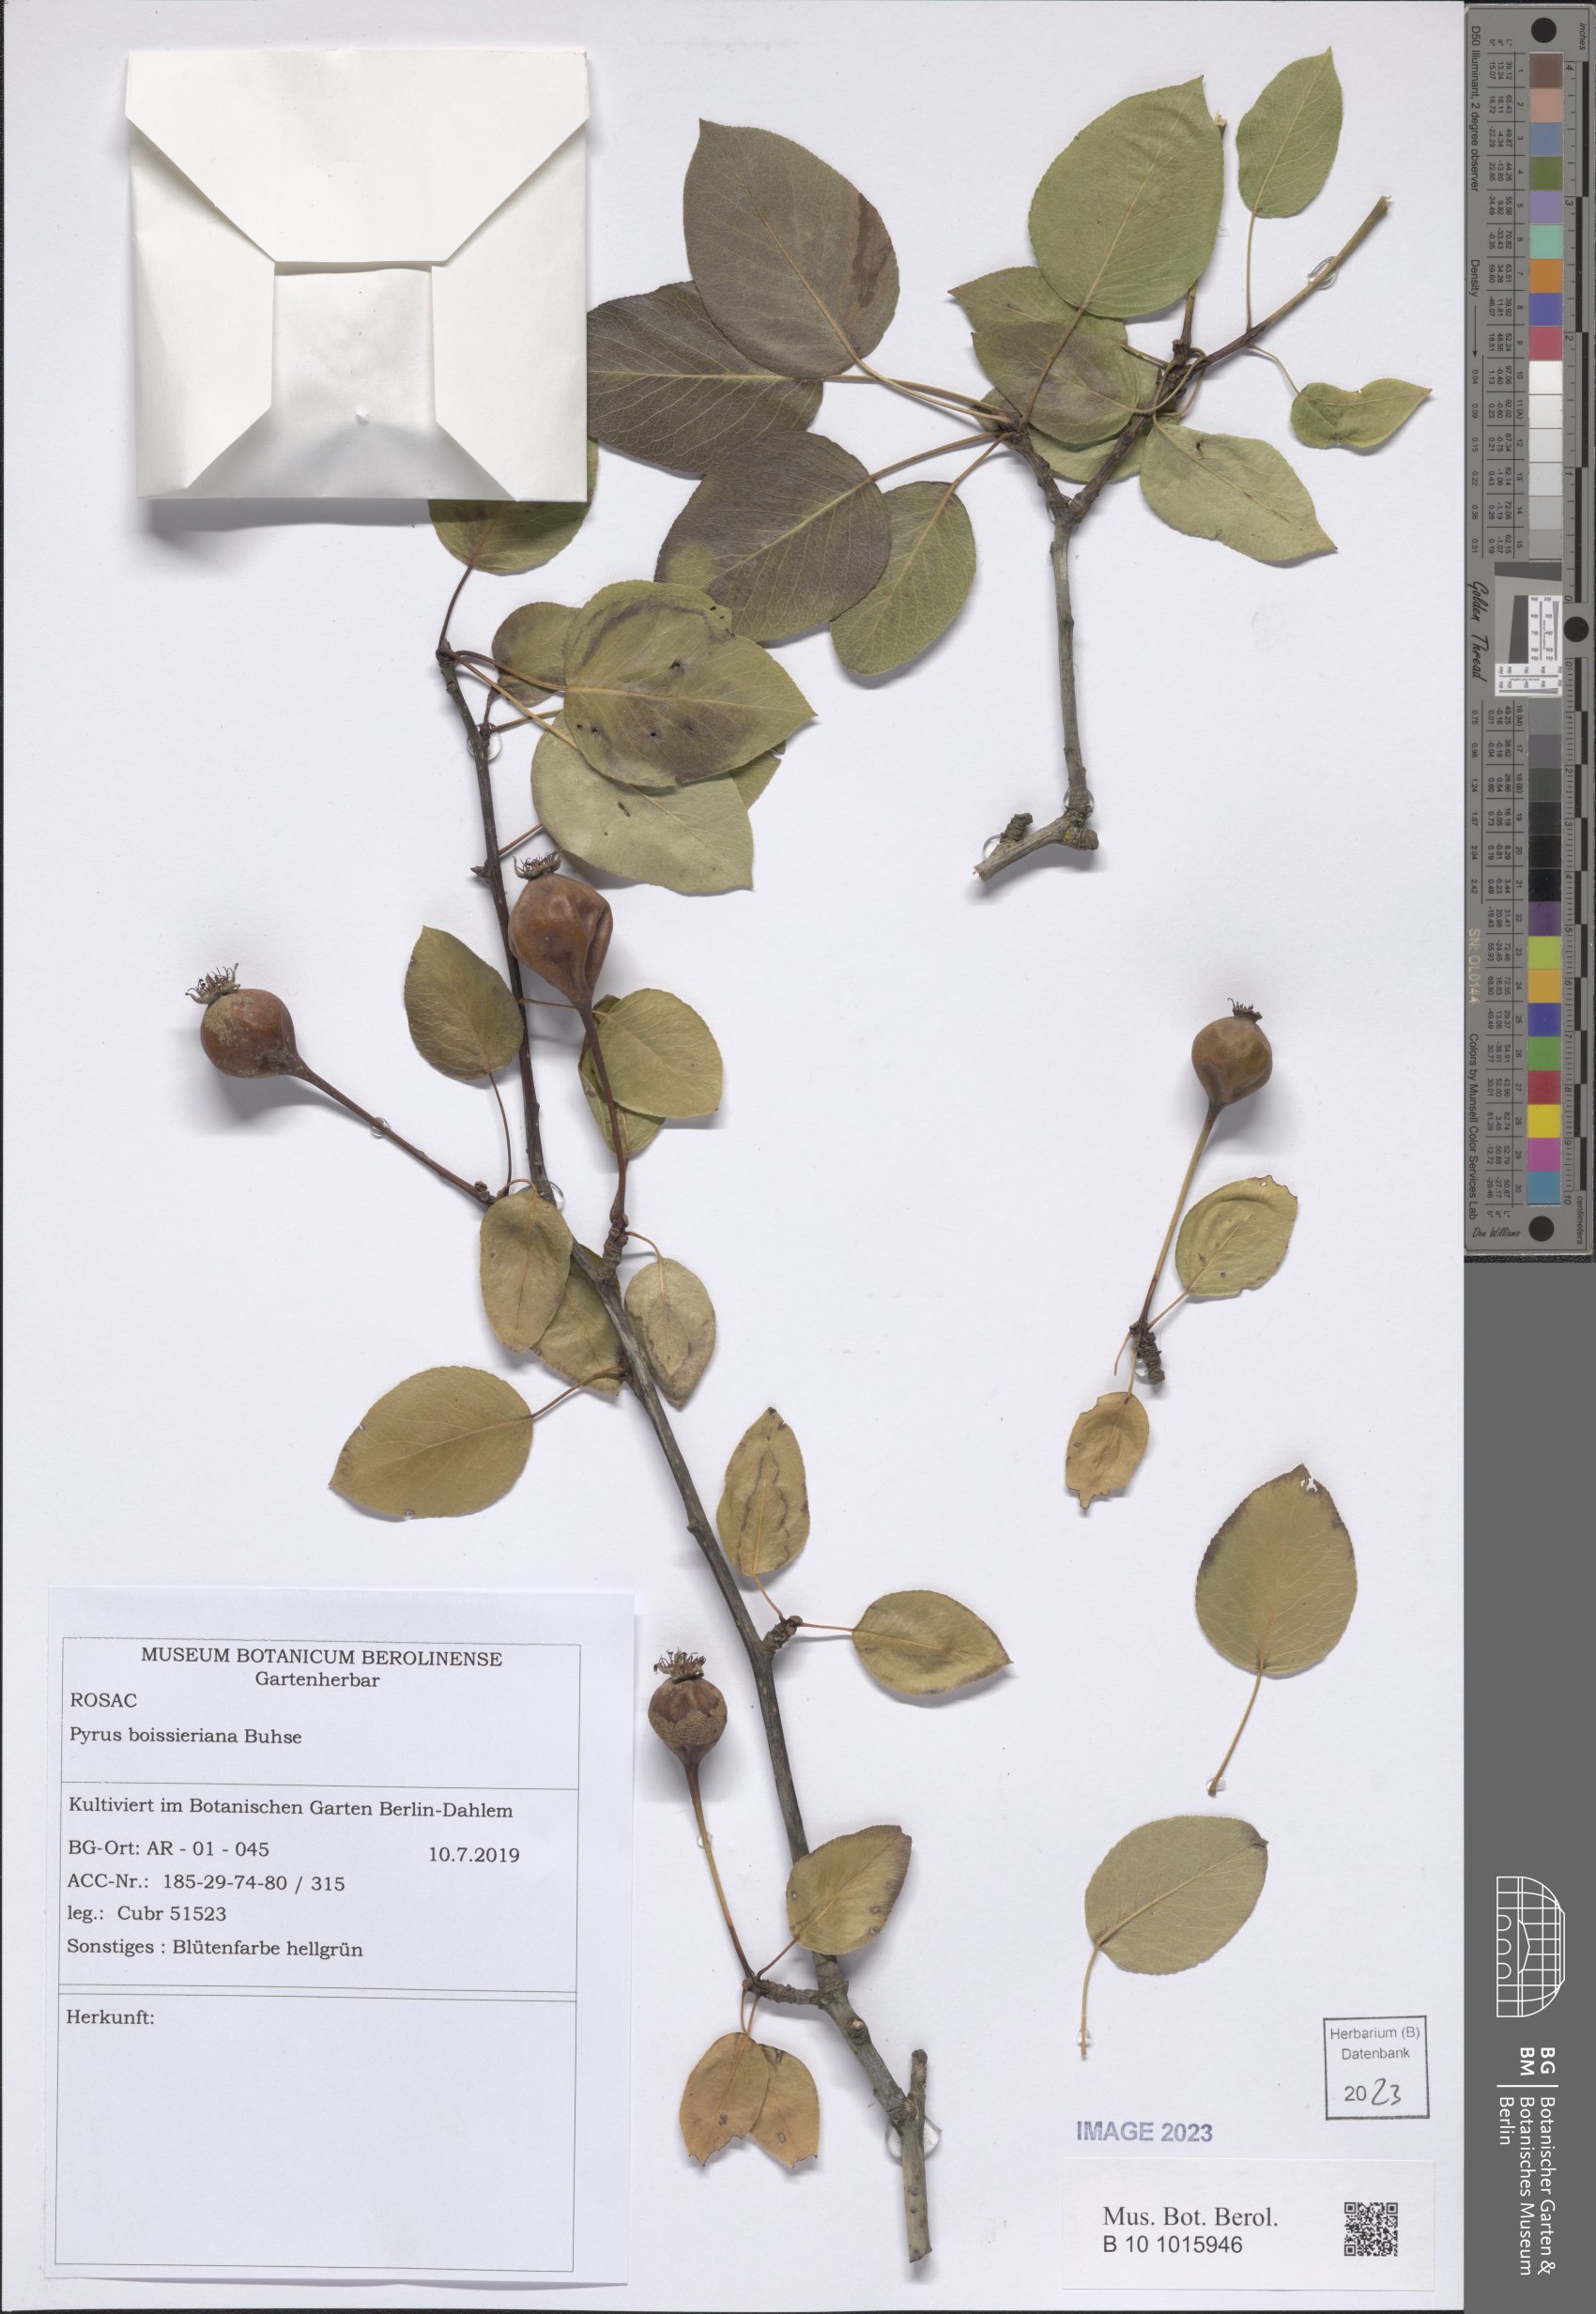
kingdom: Plantae
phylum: Tracheophyta
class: Magnoliopsida
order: Rosales
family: Rosaceae
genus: Pyrus
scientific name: Pyrus boissieriana
